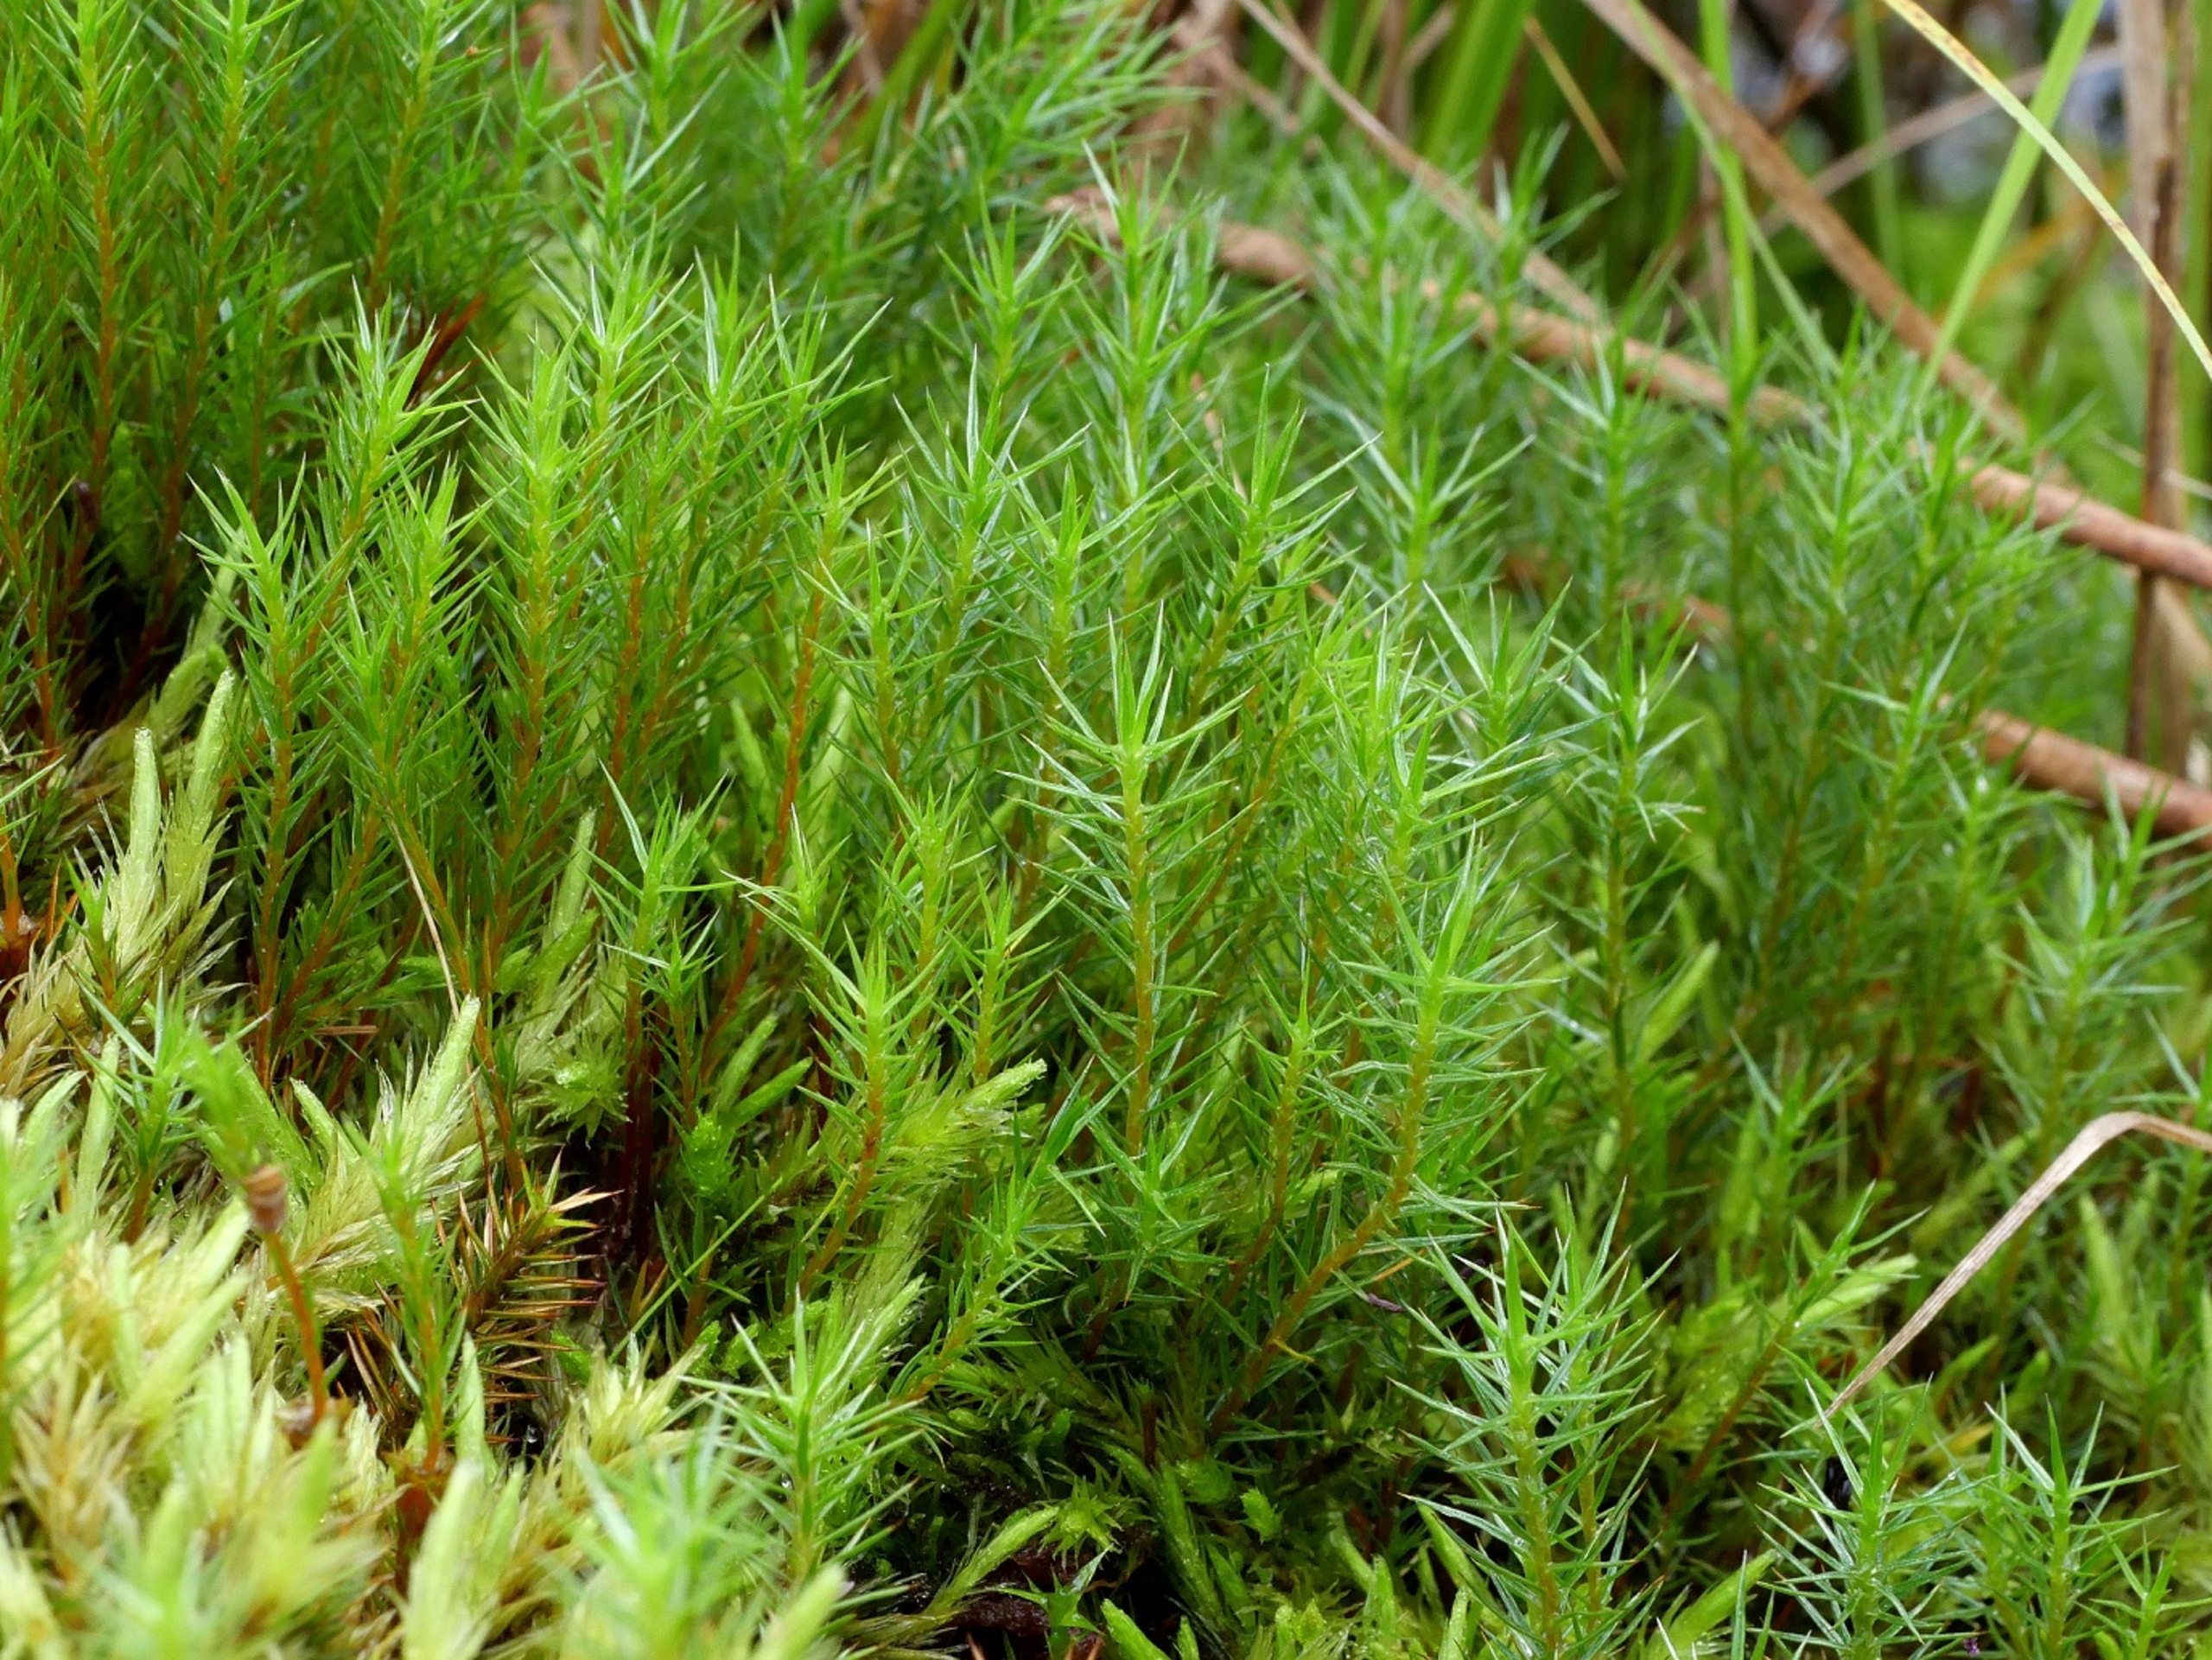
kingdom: Plantae
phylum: Bryophyta
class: Polytrichopsida
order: Polytrichales
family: Polytrichaceae
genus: Polytrichum
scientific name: Polytrichum strictum
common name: Filtstænglet jomfruhår
